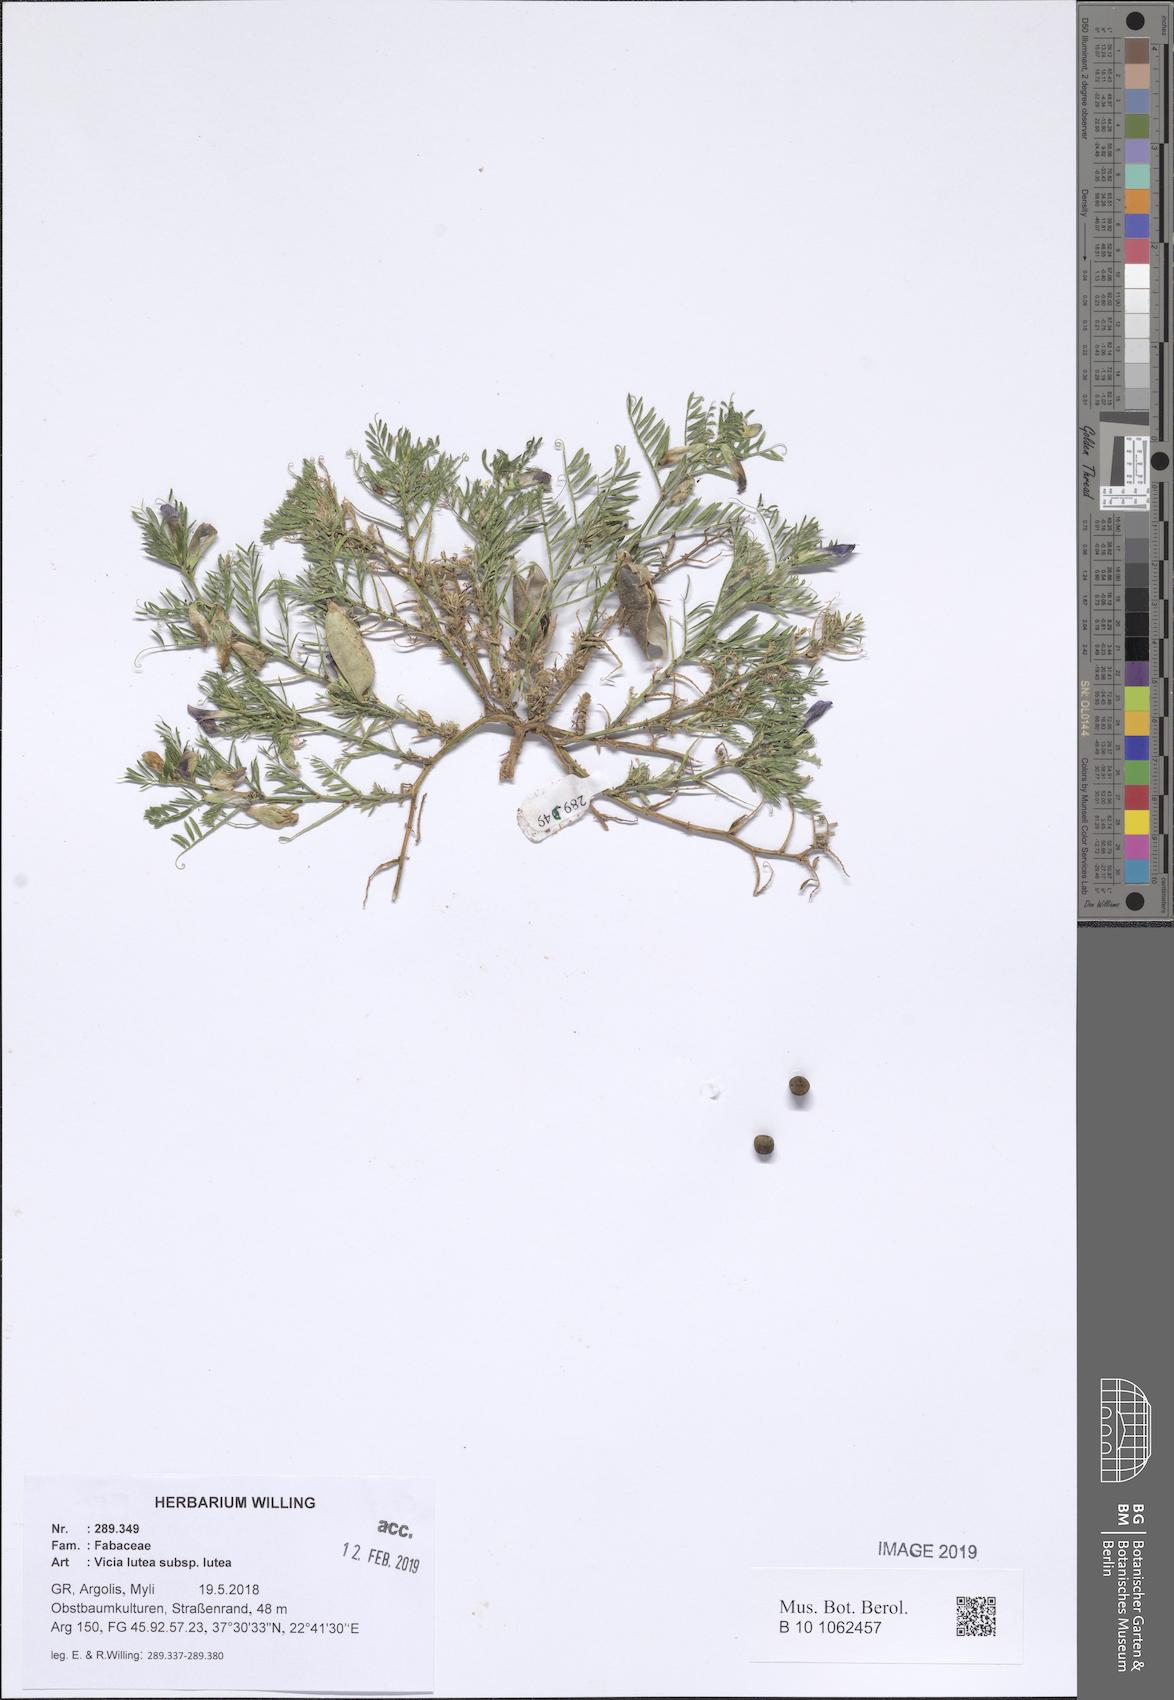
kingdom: Plantae
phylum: Tracheophyta
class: Magnoliopsida
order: Fabales
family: Fabaceae
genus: Vicia
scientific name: Vicia lutea
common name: Smooth yellow vetch
